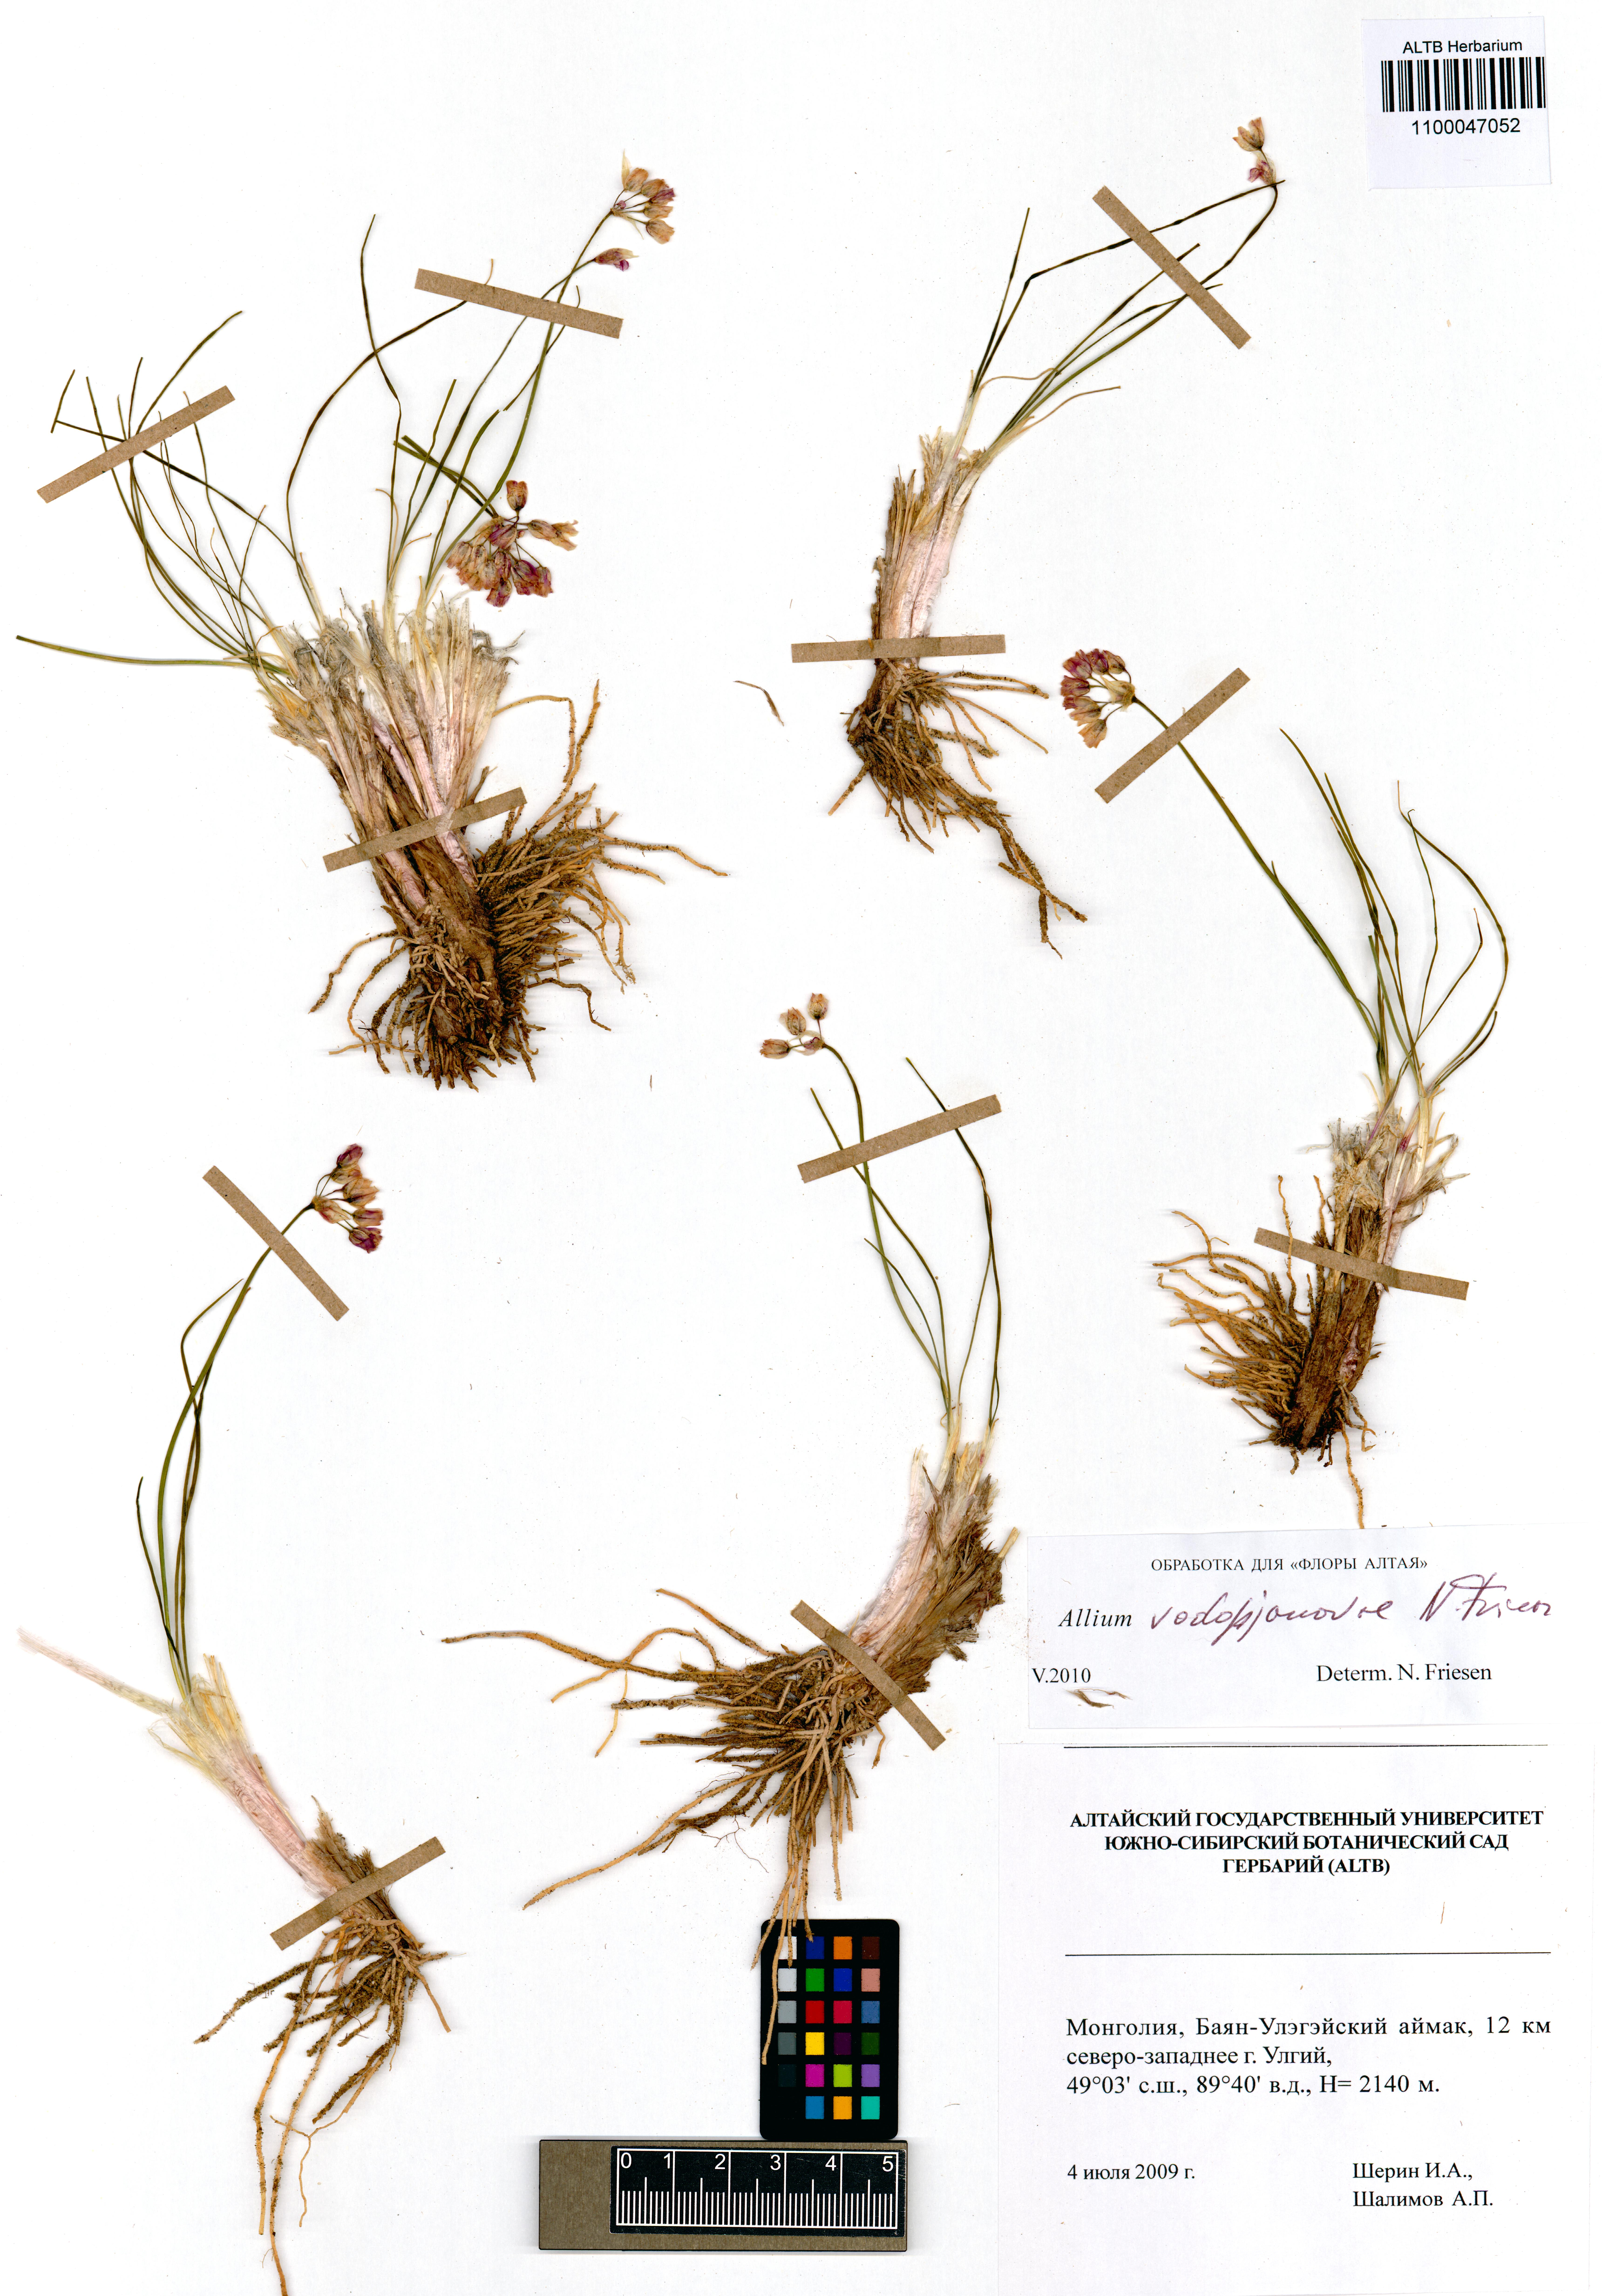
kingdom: Plantae
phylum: Tracheophyta
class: Liliopsida
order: Asparagales
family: Amaryllidaceae
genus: Allium
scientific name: Allium vodopjanovae
